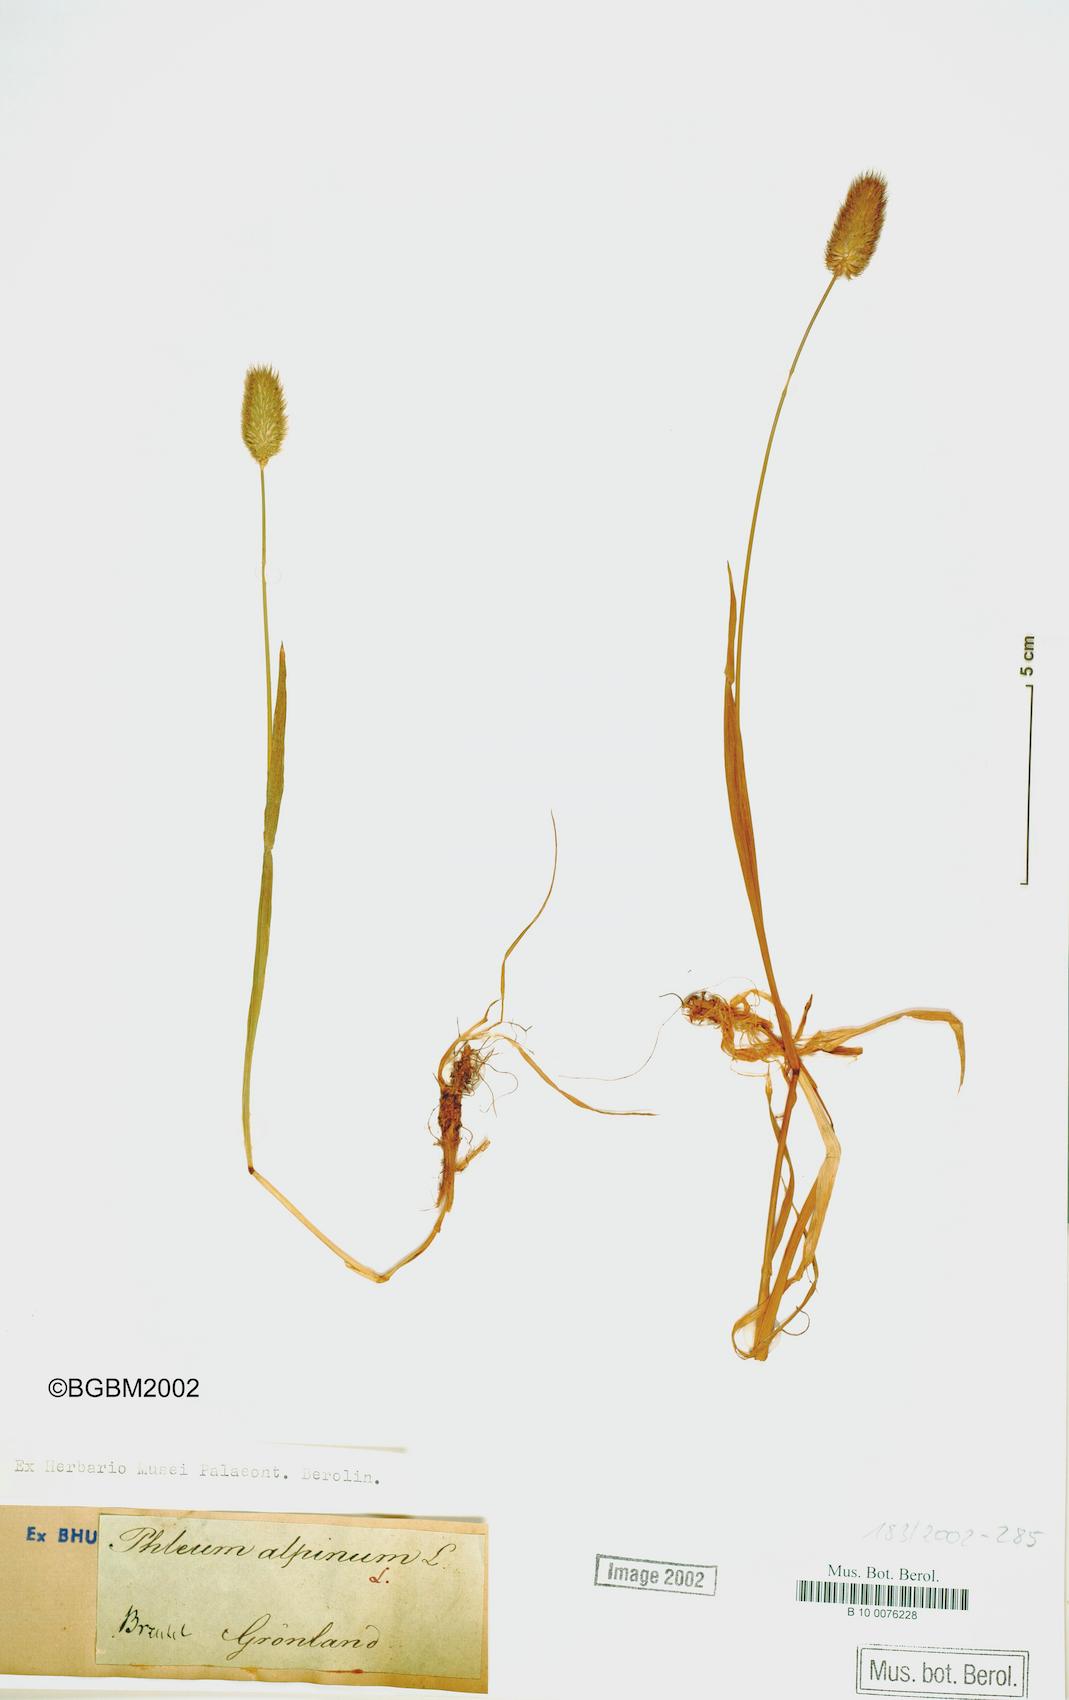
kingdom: Plantae
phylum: Tracheophyta
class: Liliopsida
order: Poales
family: Poaceae
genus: Phleum
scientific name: Phleum alpinum
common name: Alpine cat's-tail
